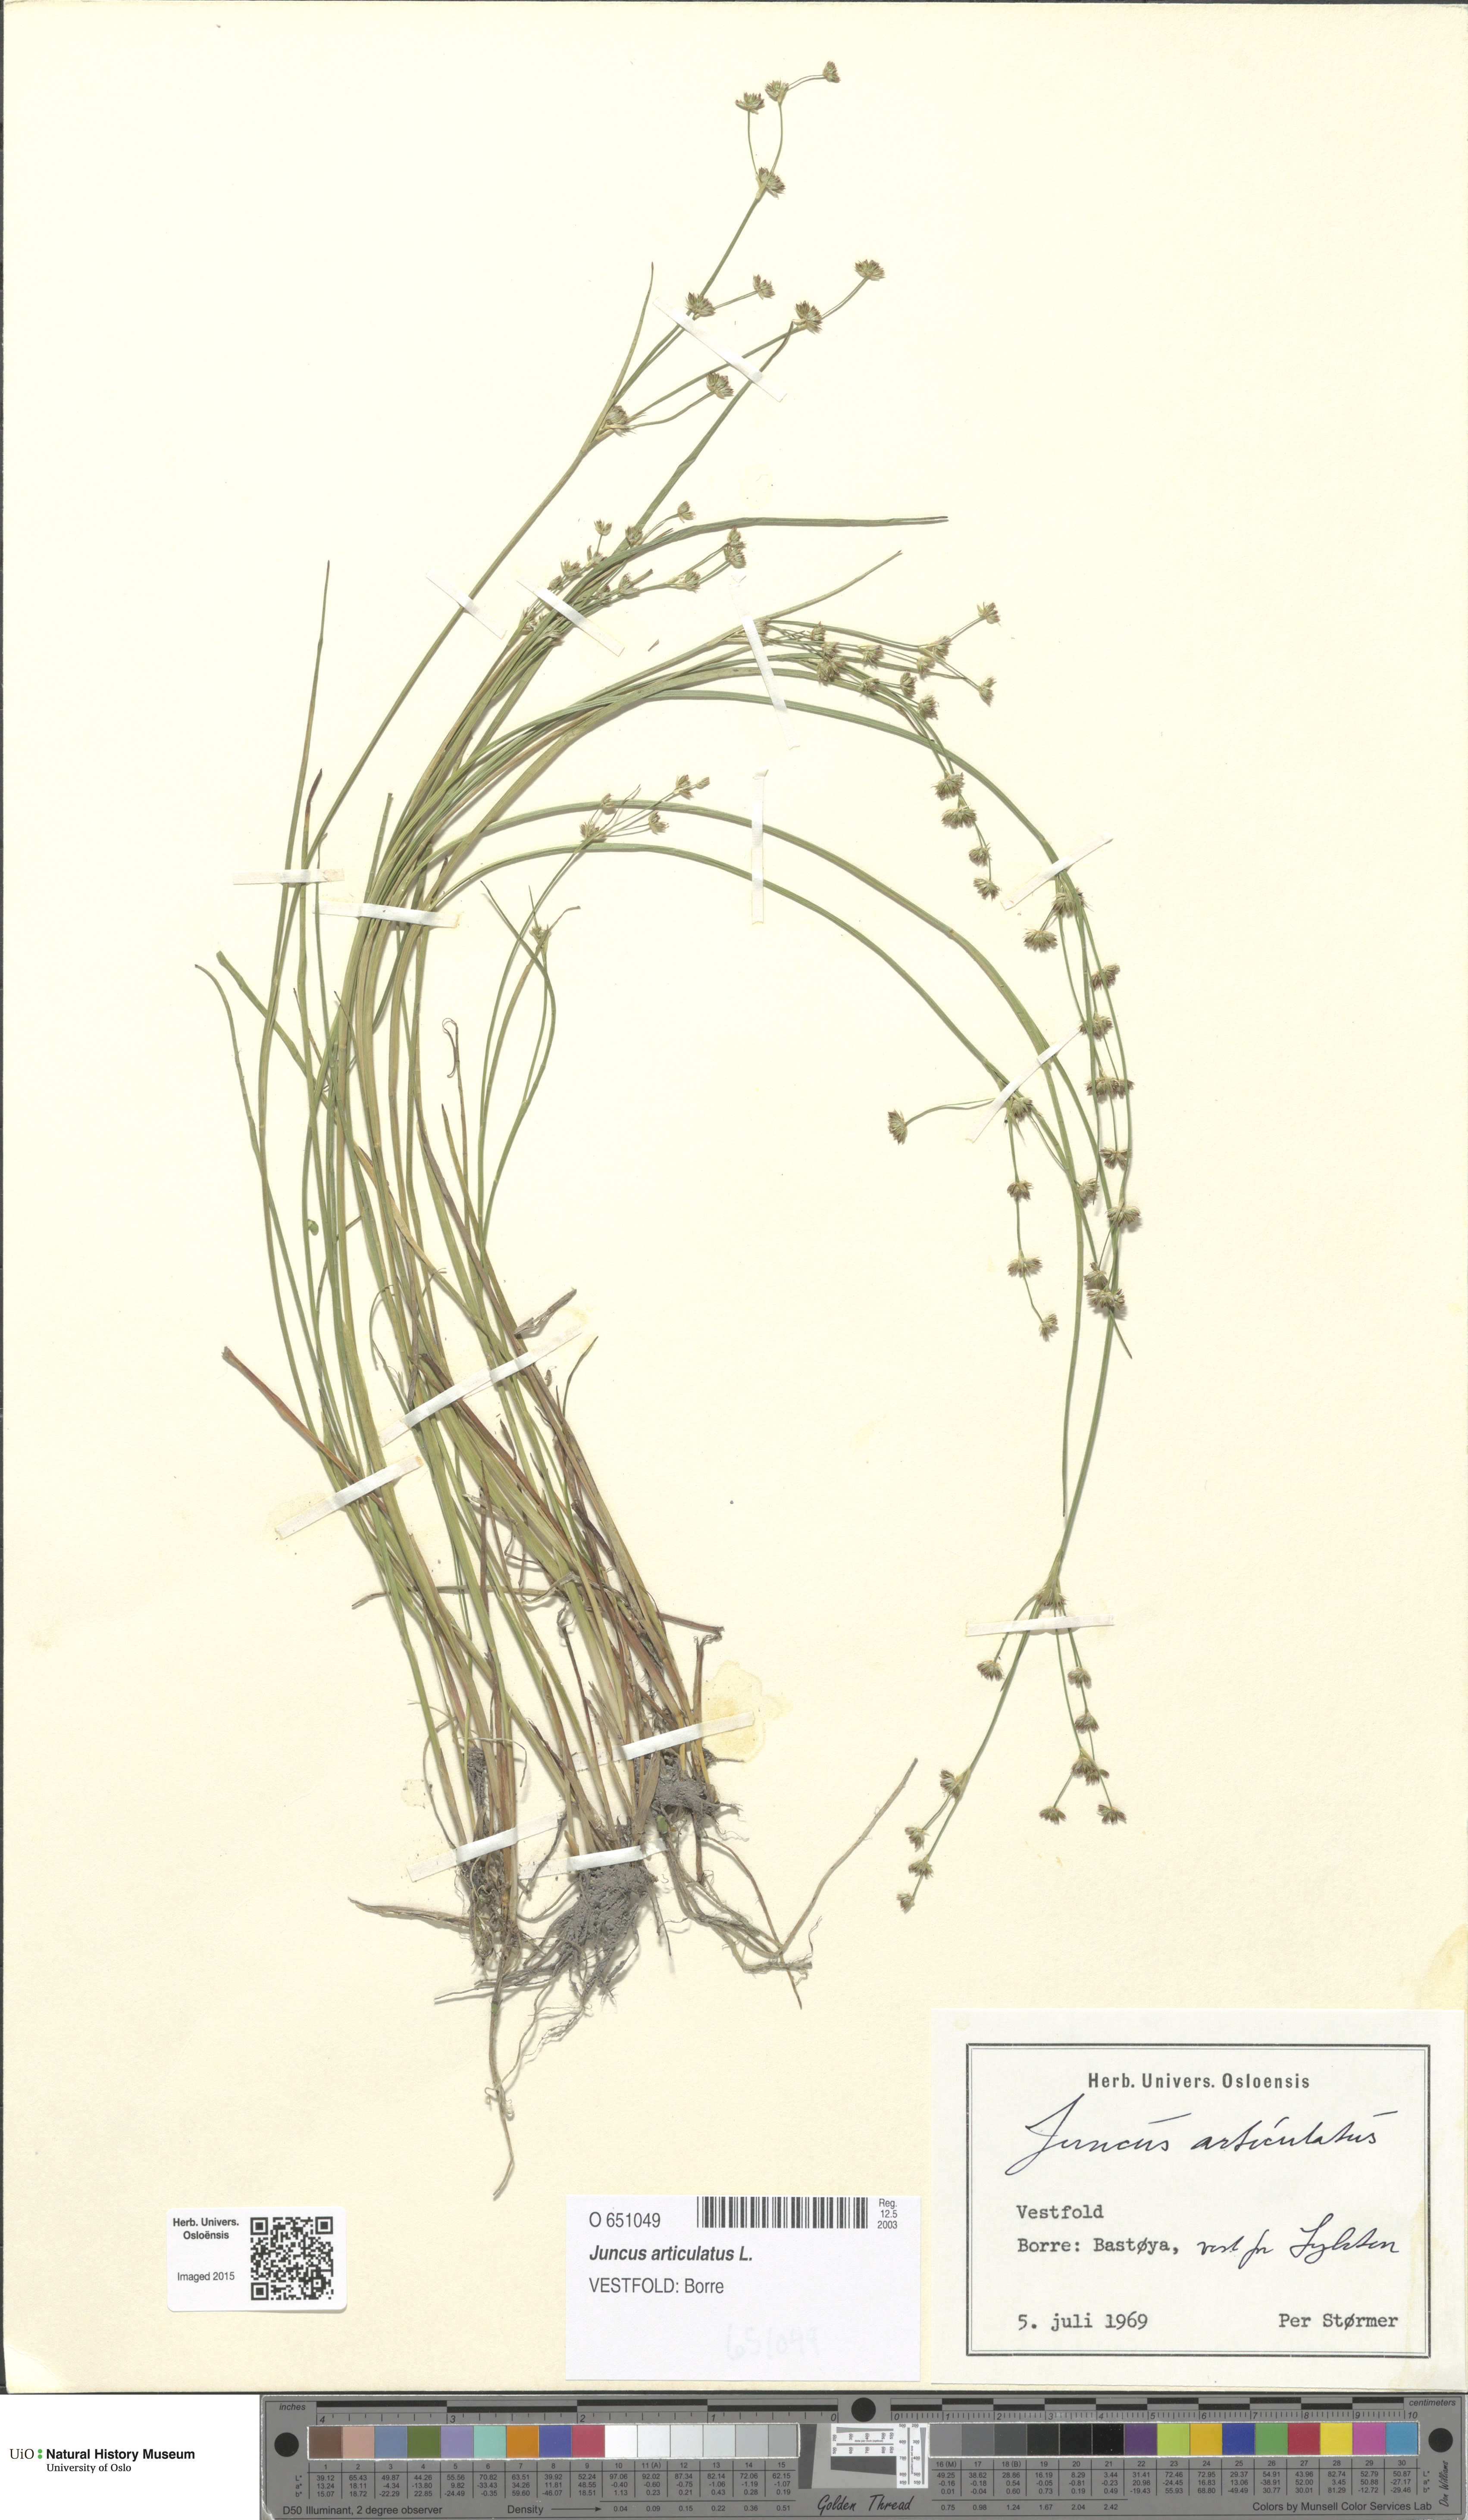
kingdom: Plantae
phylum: Tracheophyta
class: Liliopsida
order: Poales
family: Juncaceae
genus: Juncus
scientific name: Juncus articulatus
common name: Jointed rush
